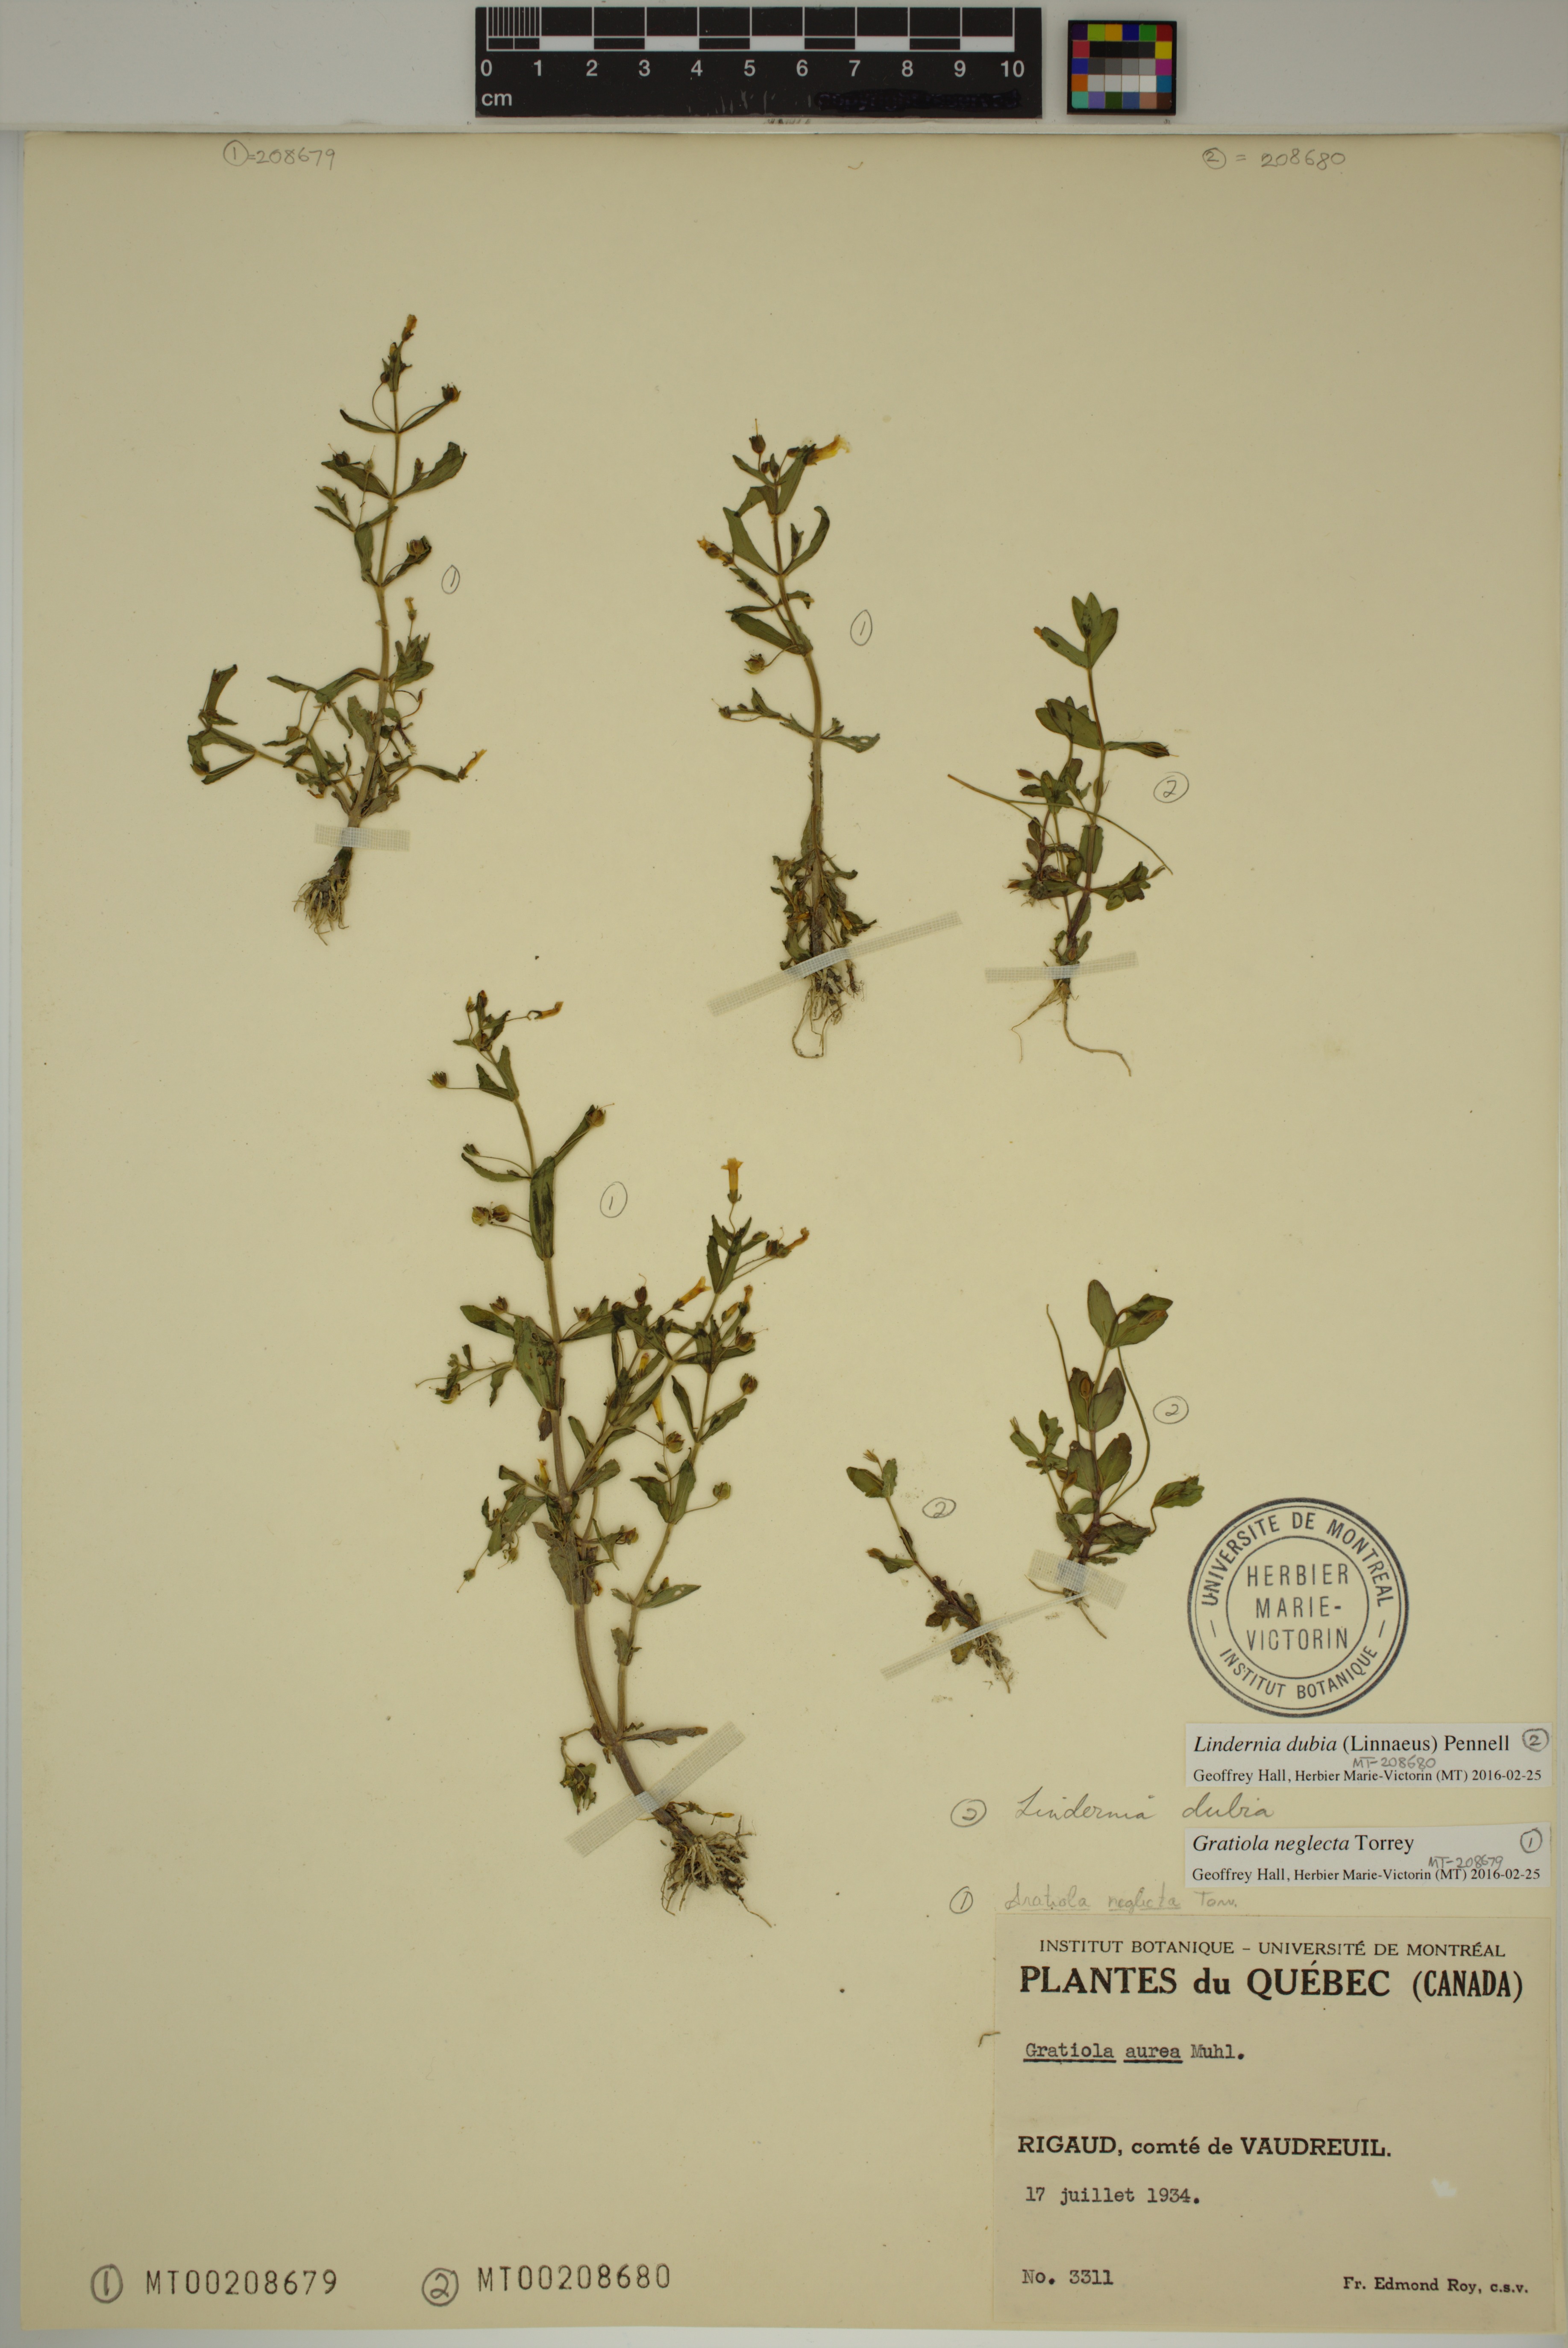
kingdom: Plantae
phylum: Tracheophyta
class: Magnoliopsida
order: Lamiales
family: Linderniaceae
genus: Lindernia
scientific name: Lindernia dubia
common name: Annual false pimpernel
